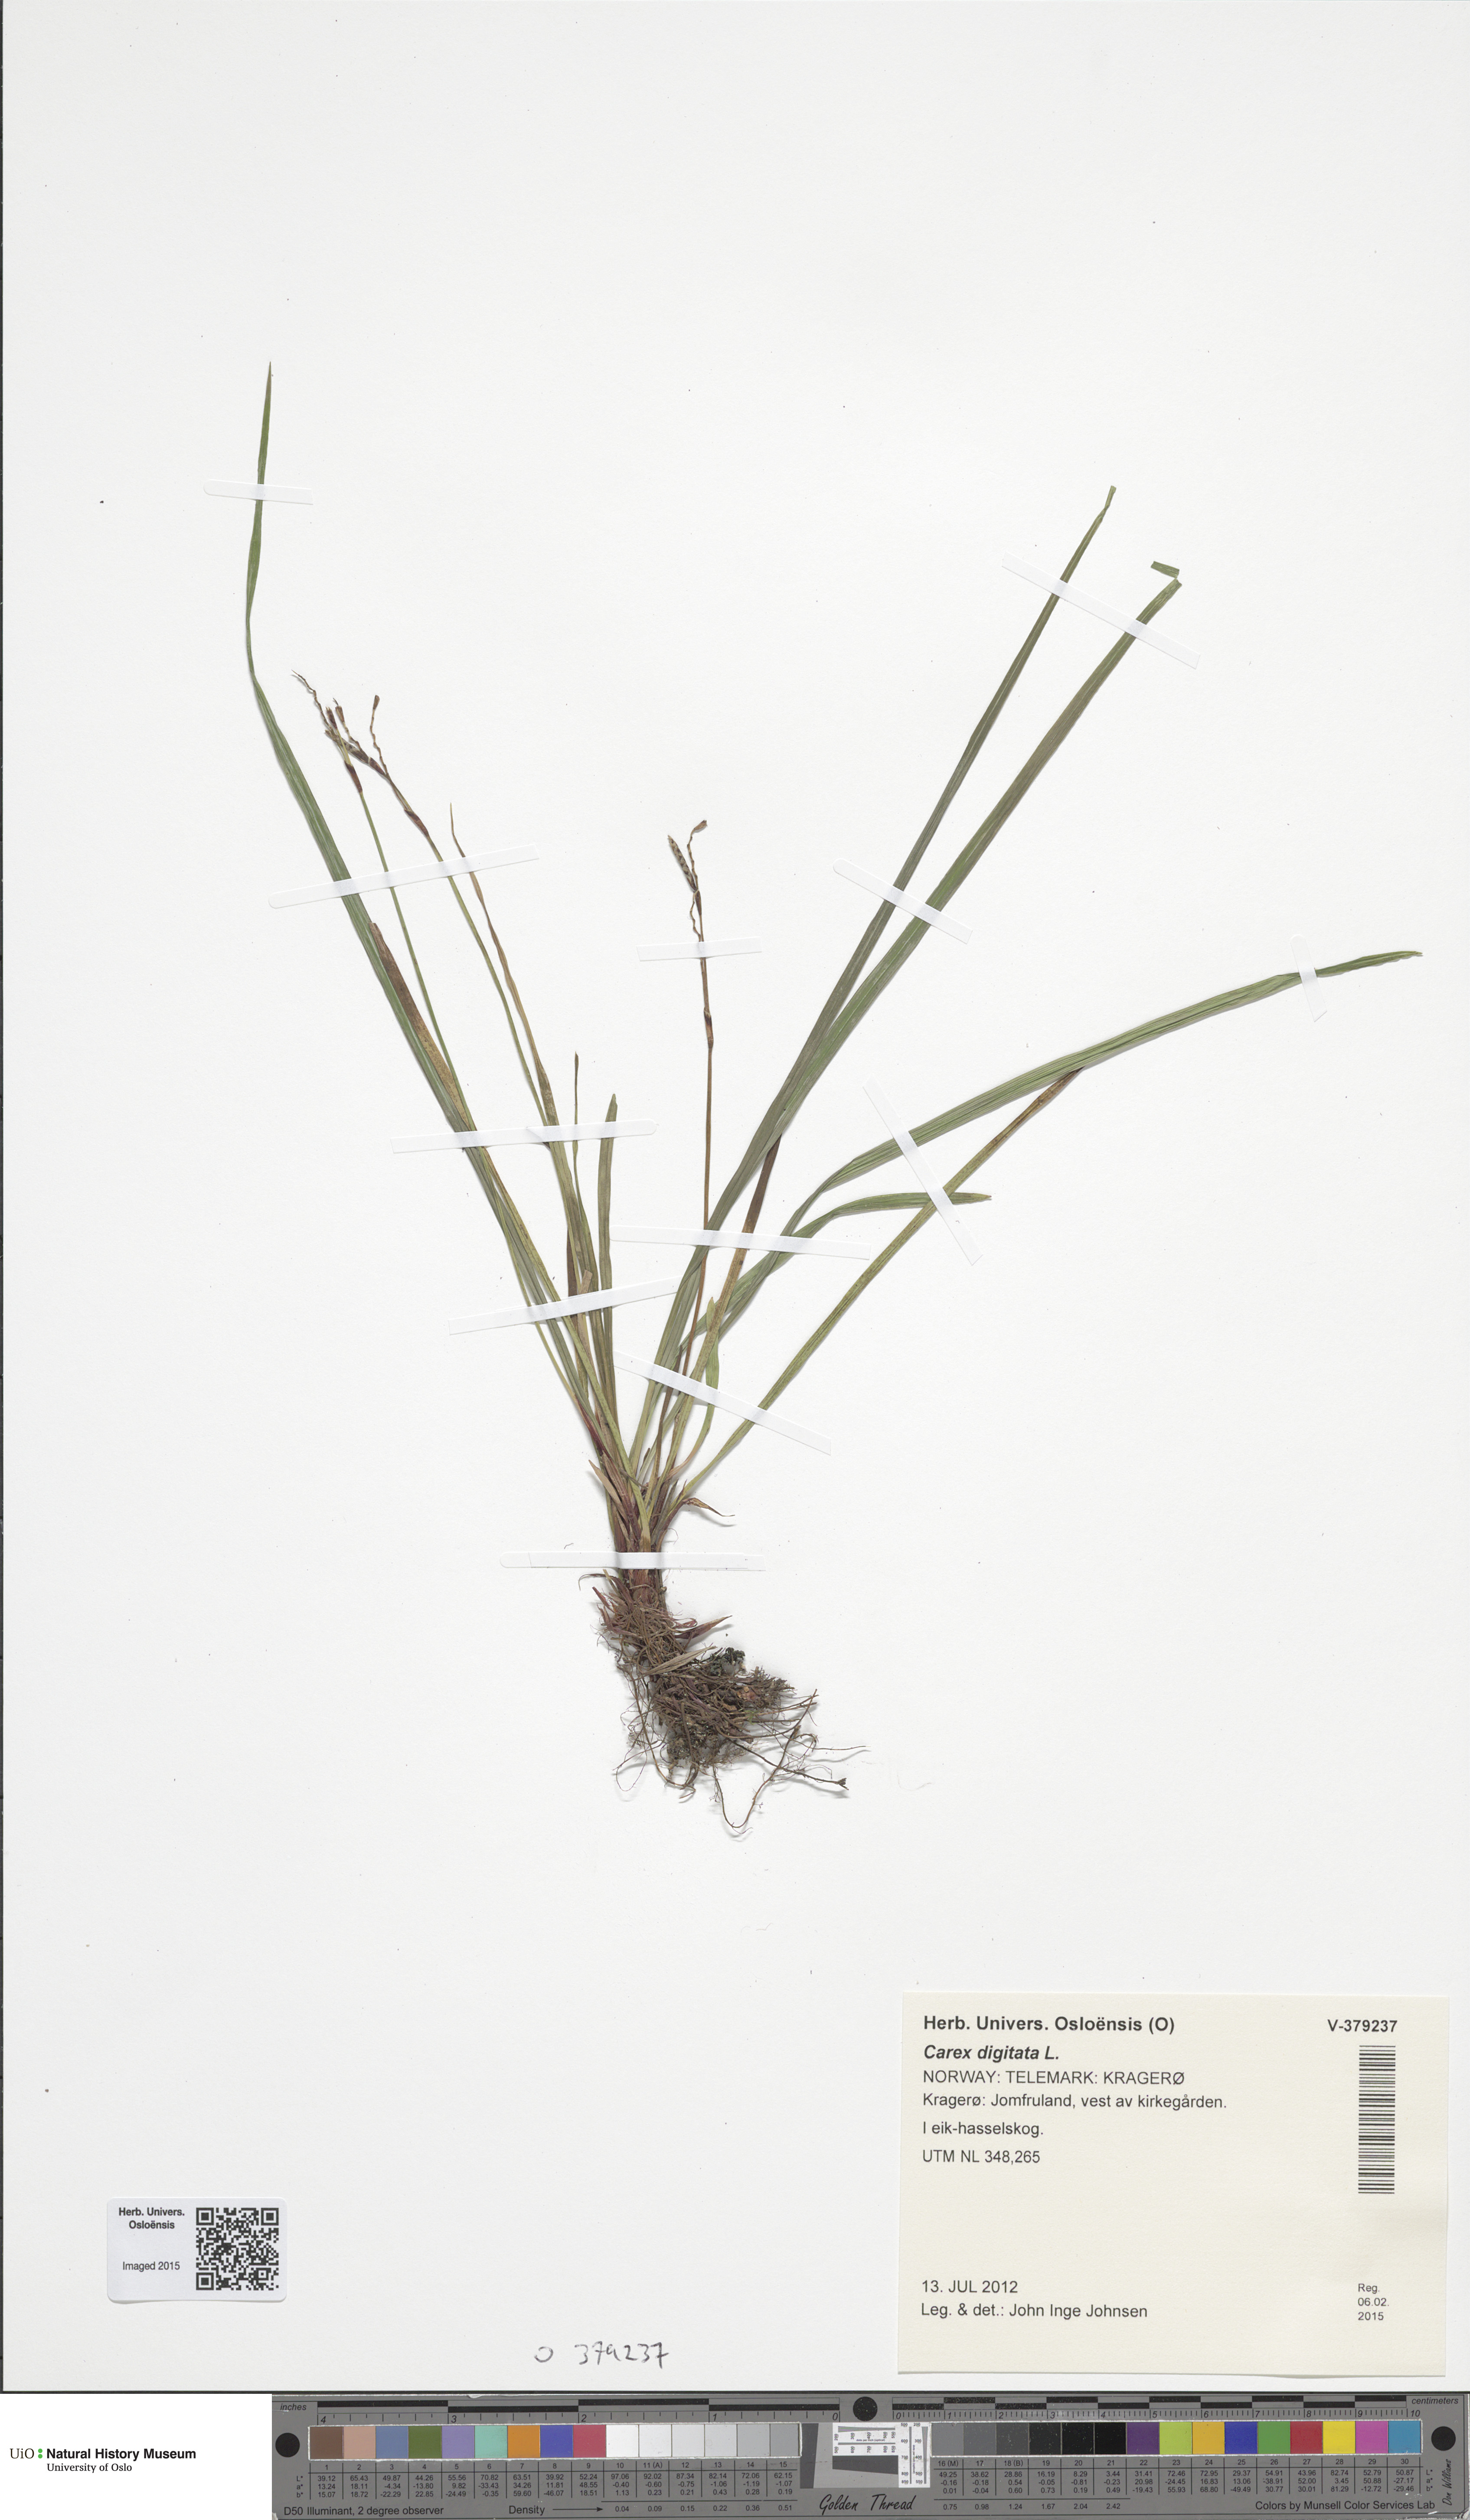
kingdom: Plantae
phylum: Tracheophyta
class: Liliopsida
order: Poales
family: Cyperaceae
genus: Carex
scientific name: Carex digitata
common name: Fingered sedge
